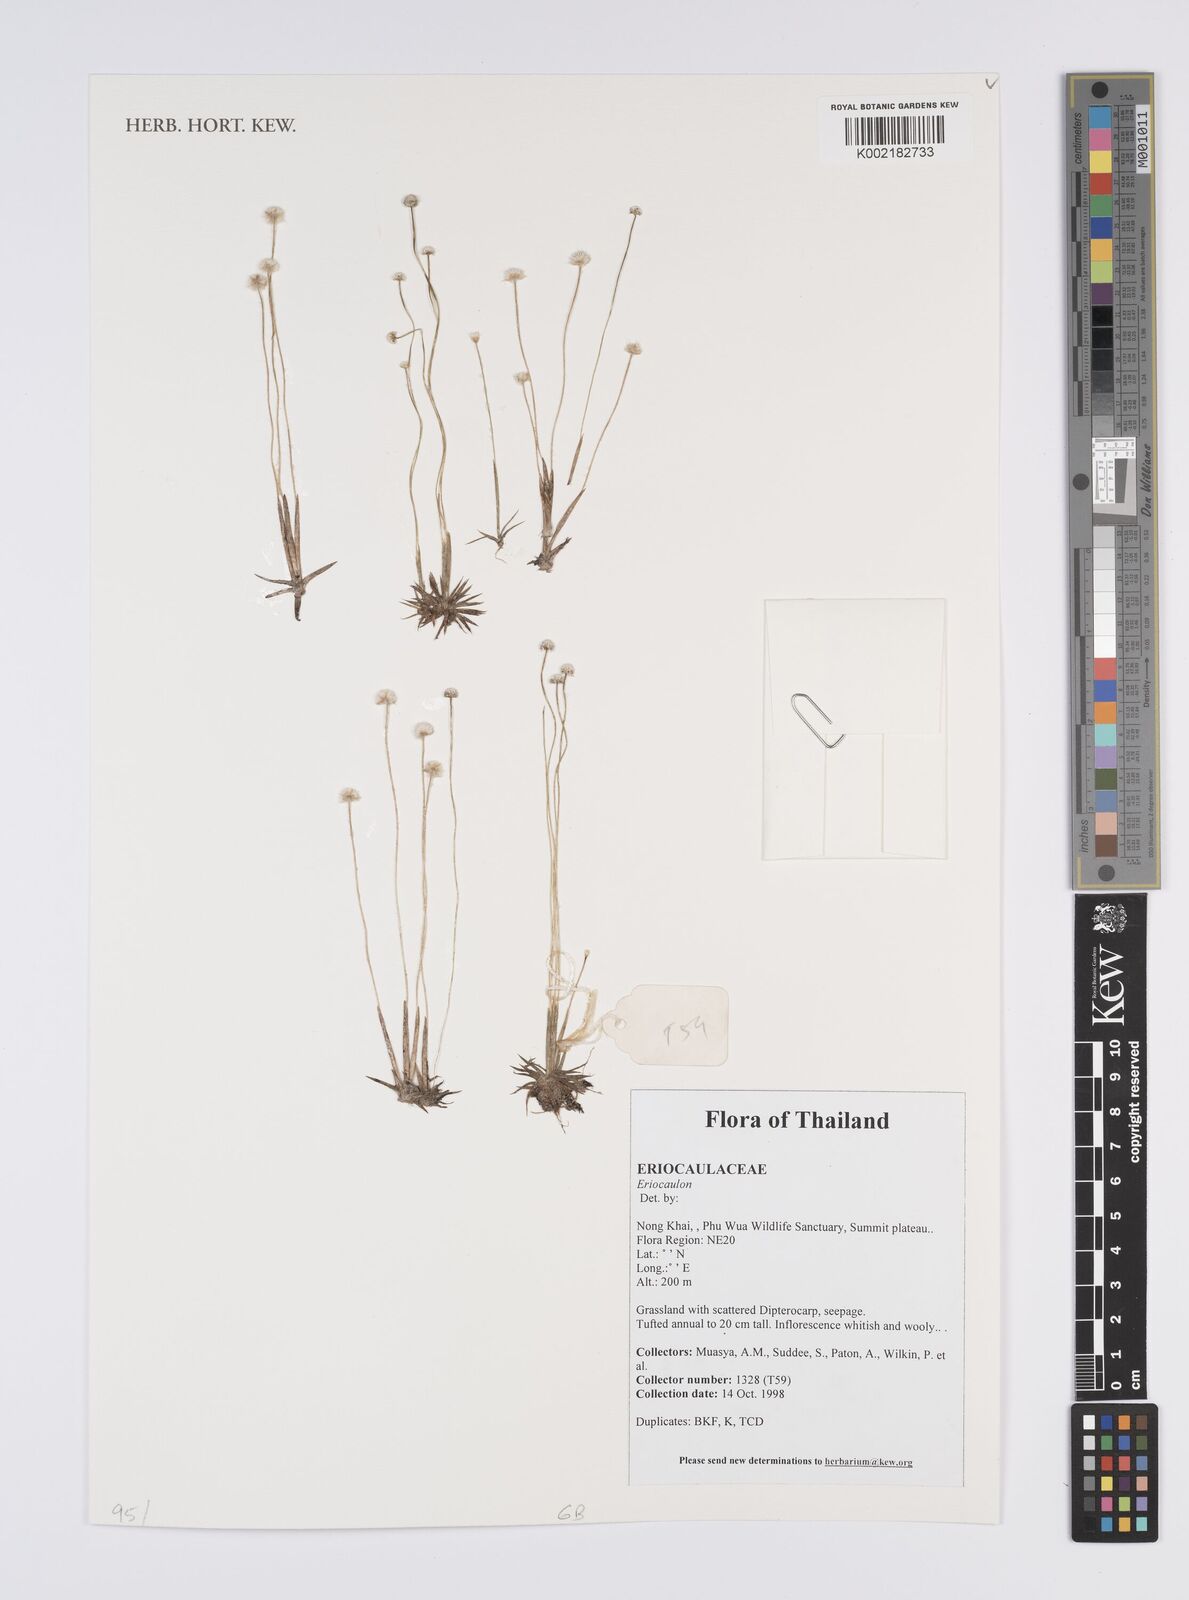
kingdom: Plantae
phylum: Tracheophyta
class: Liliopsida
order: Poales
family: Eriocaulaceae
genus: Eriocaulon
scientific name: Eriocaulon
